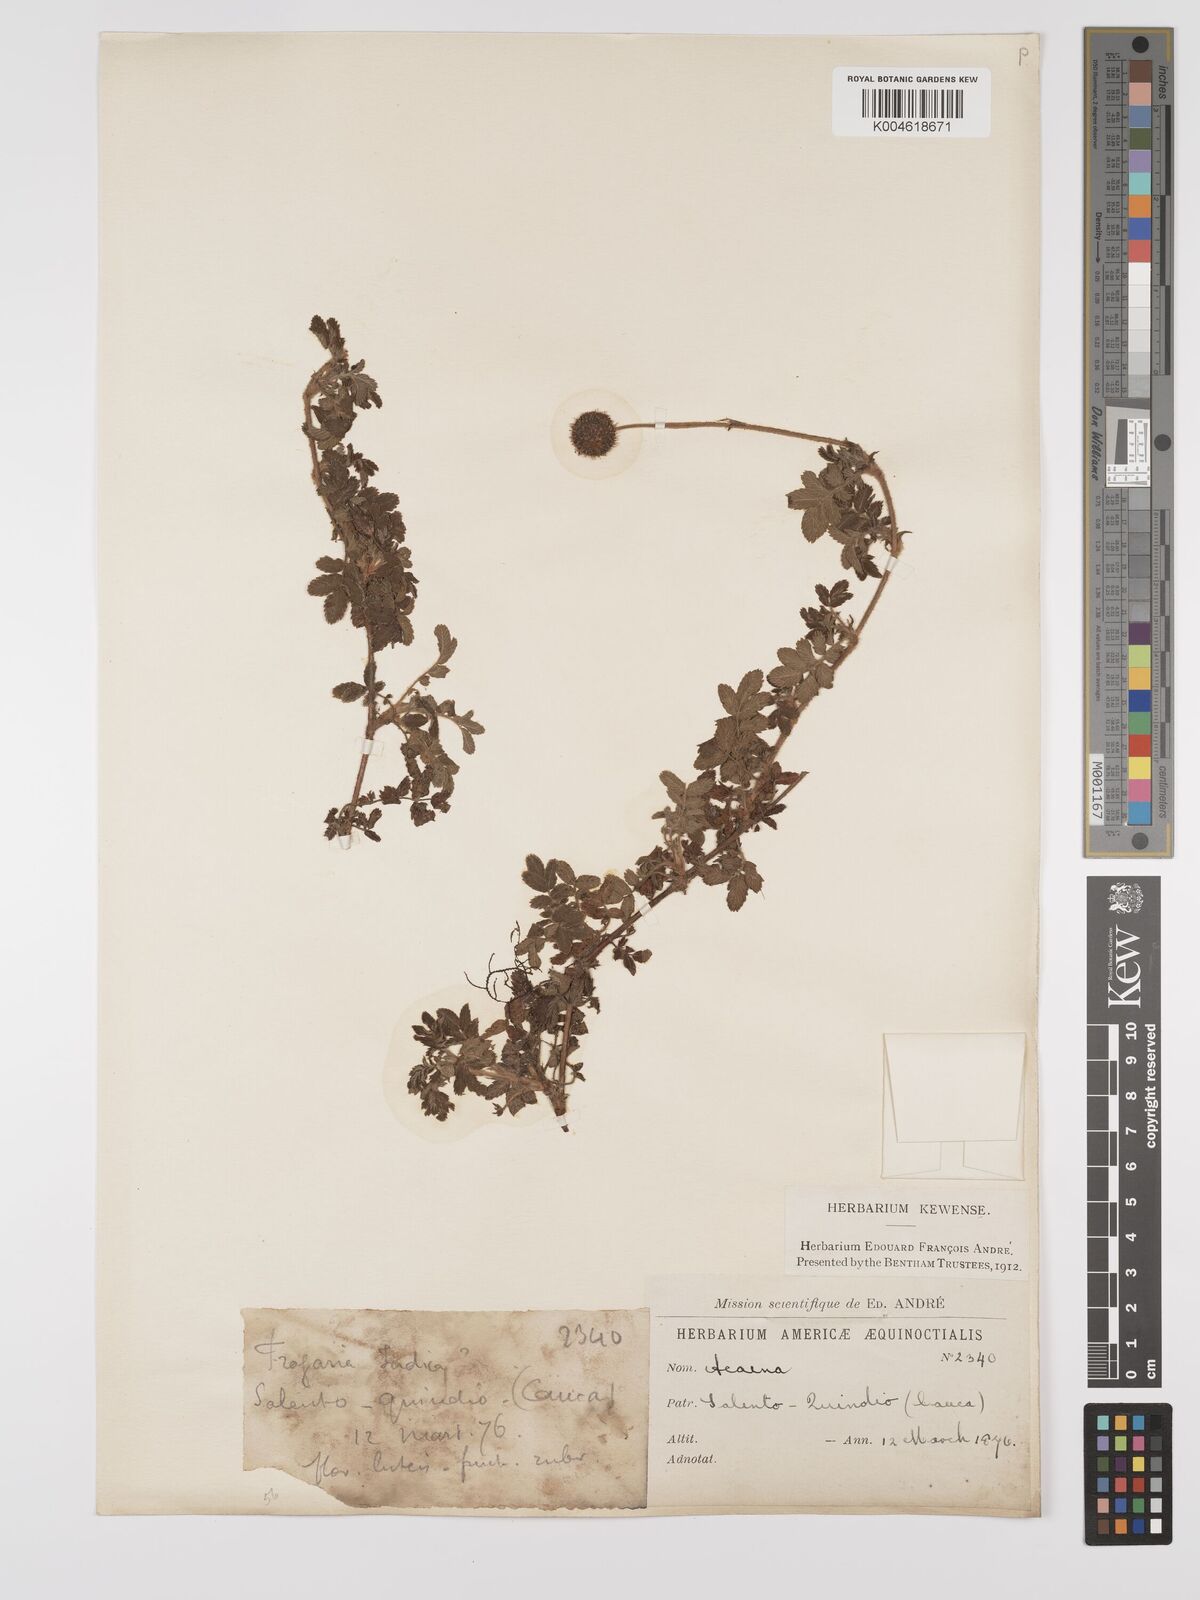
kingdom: Plantae
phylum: Tracheophyta
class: Magnoliopsida
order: Rosales
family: Rosaceae
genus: Acaena
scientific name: Acaena ovalifolia
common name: Two-spined acaena
